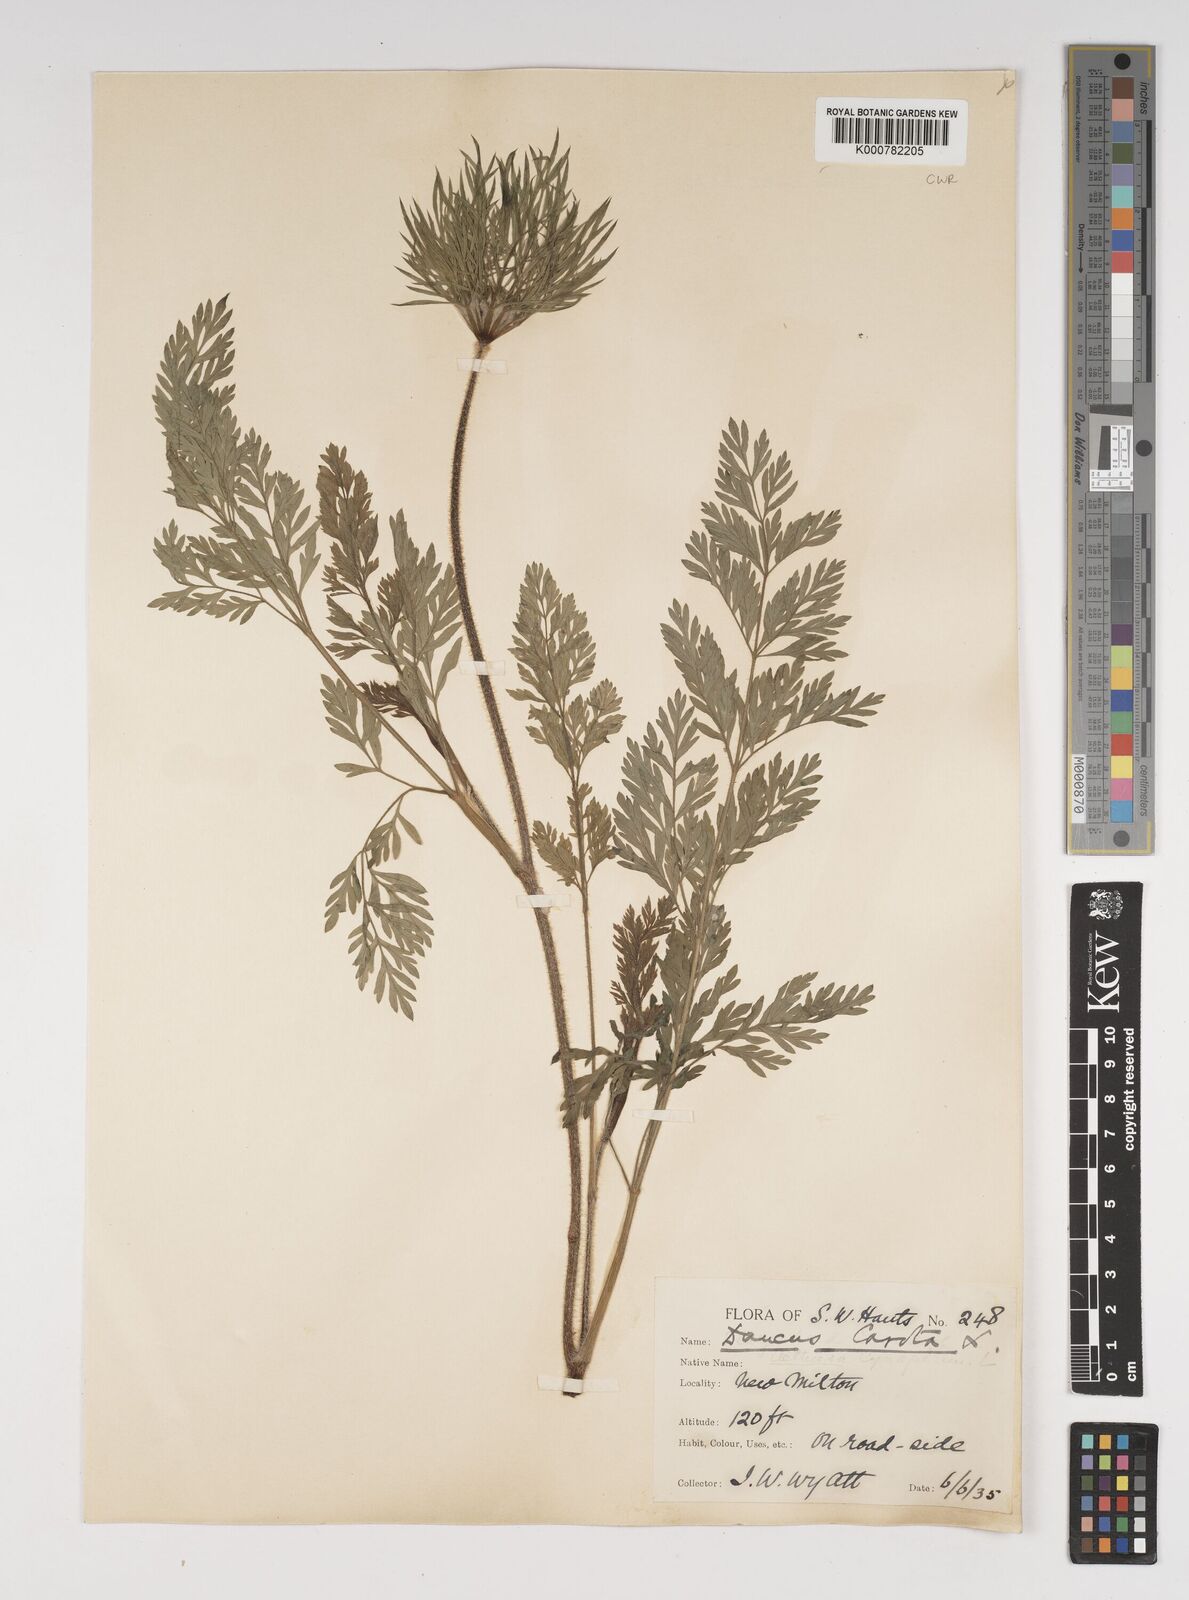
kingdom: Plantae
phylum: Tracheophyta
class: Magnoliopsida
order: Apiales
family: Apiaceae
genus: Daucus
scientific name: Daucus carota
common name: Wild carrot
